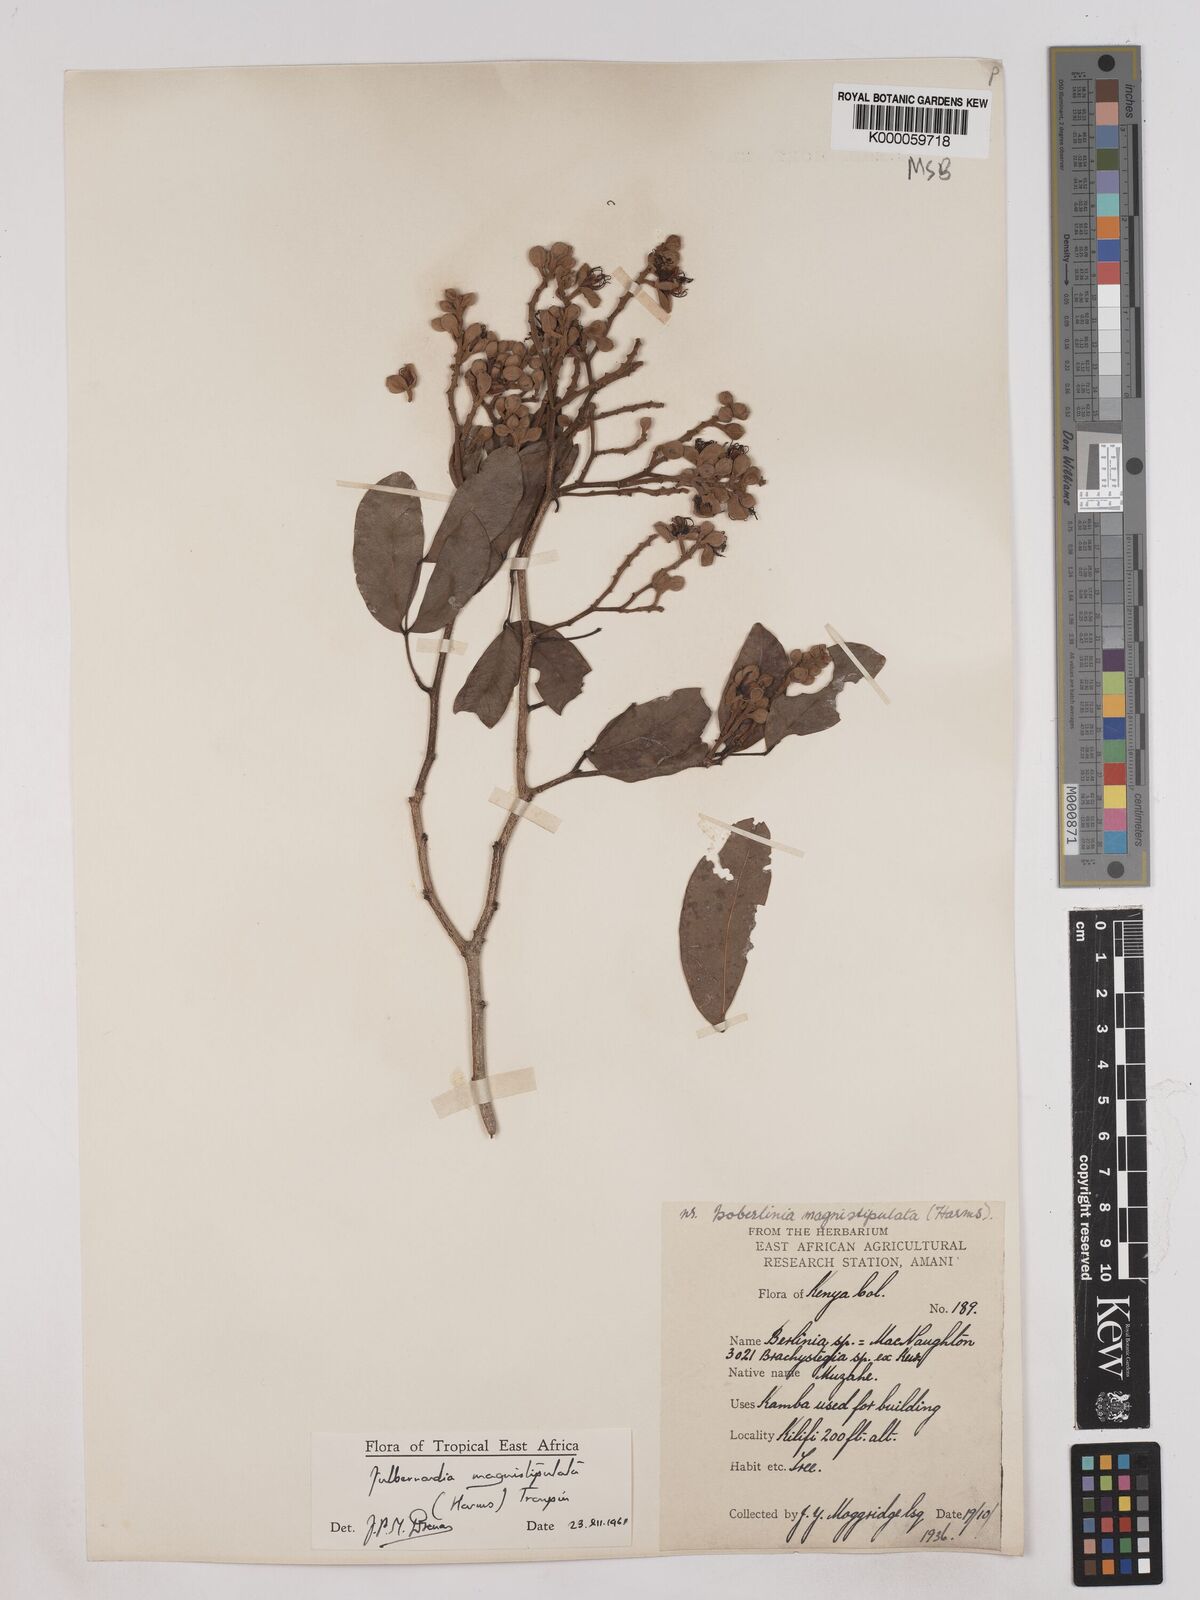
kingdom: Plantae
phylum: Tracheophyta
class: Magnoliopsida
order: Fabales
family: Fabaceae
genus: Julbernardia
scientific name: Julbernardia magnistipulata
